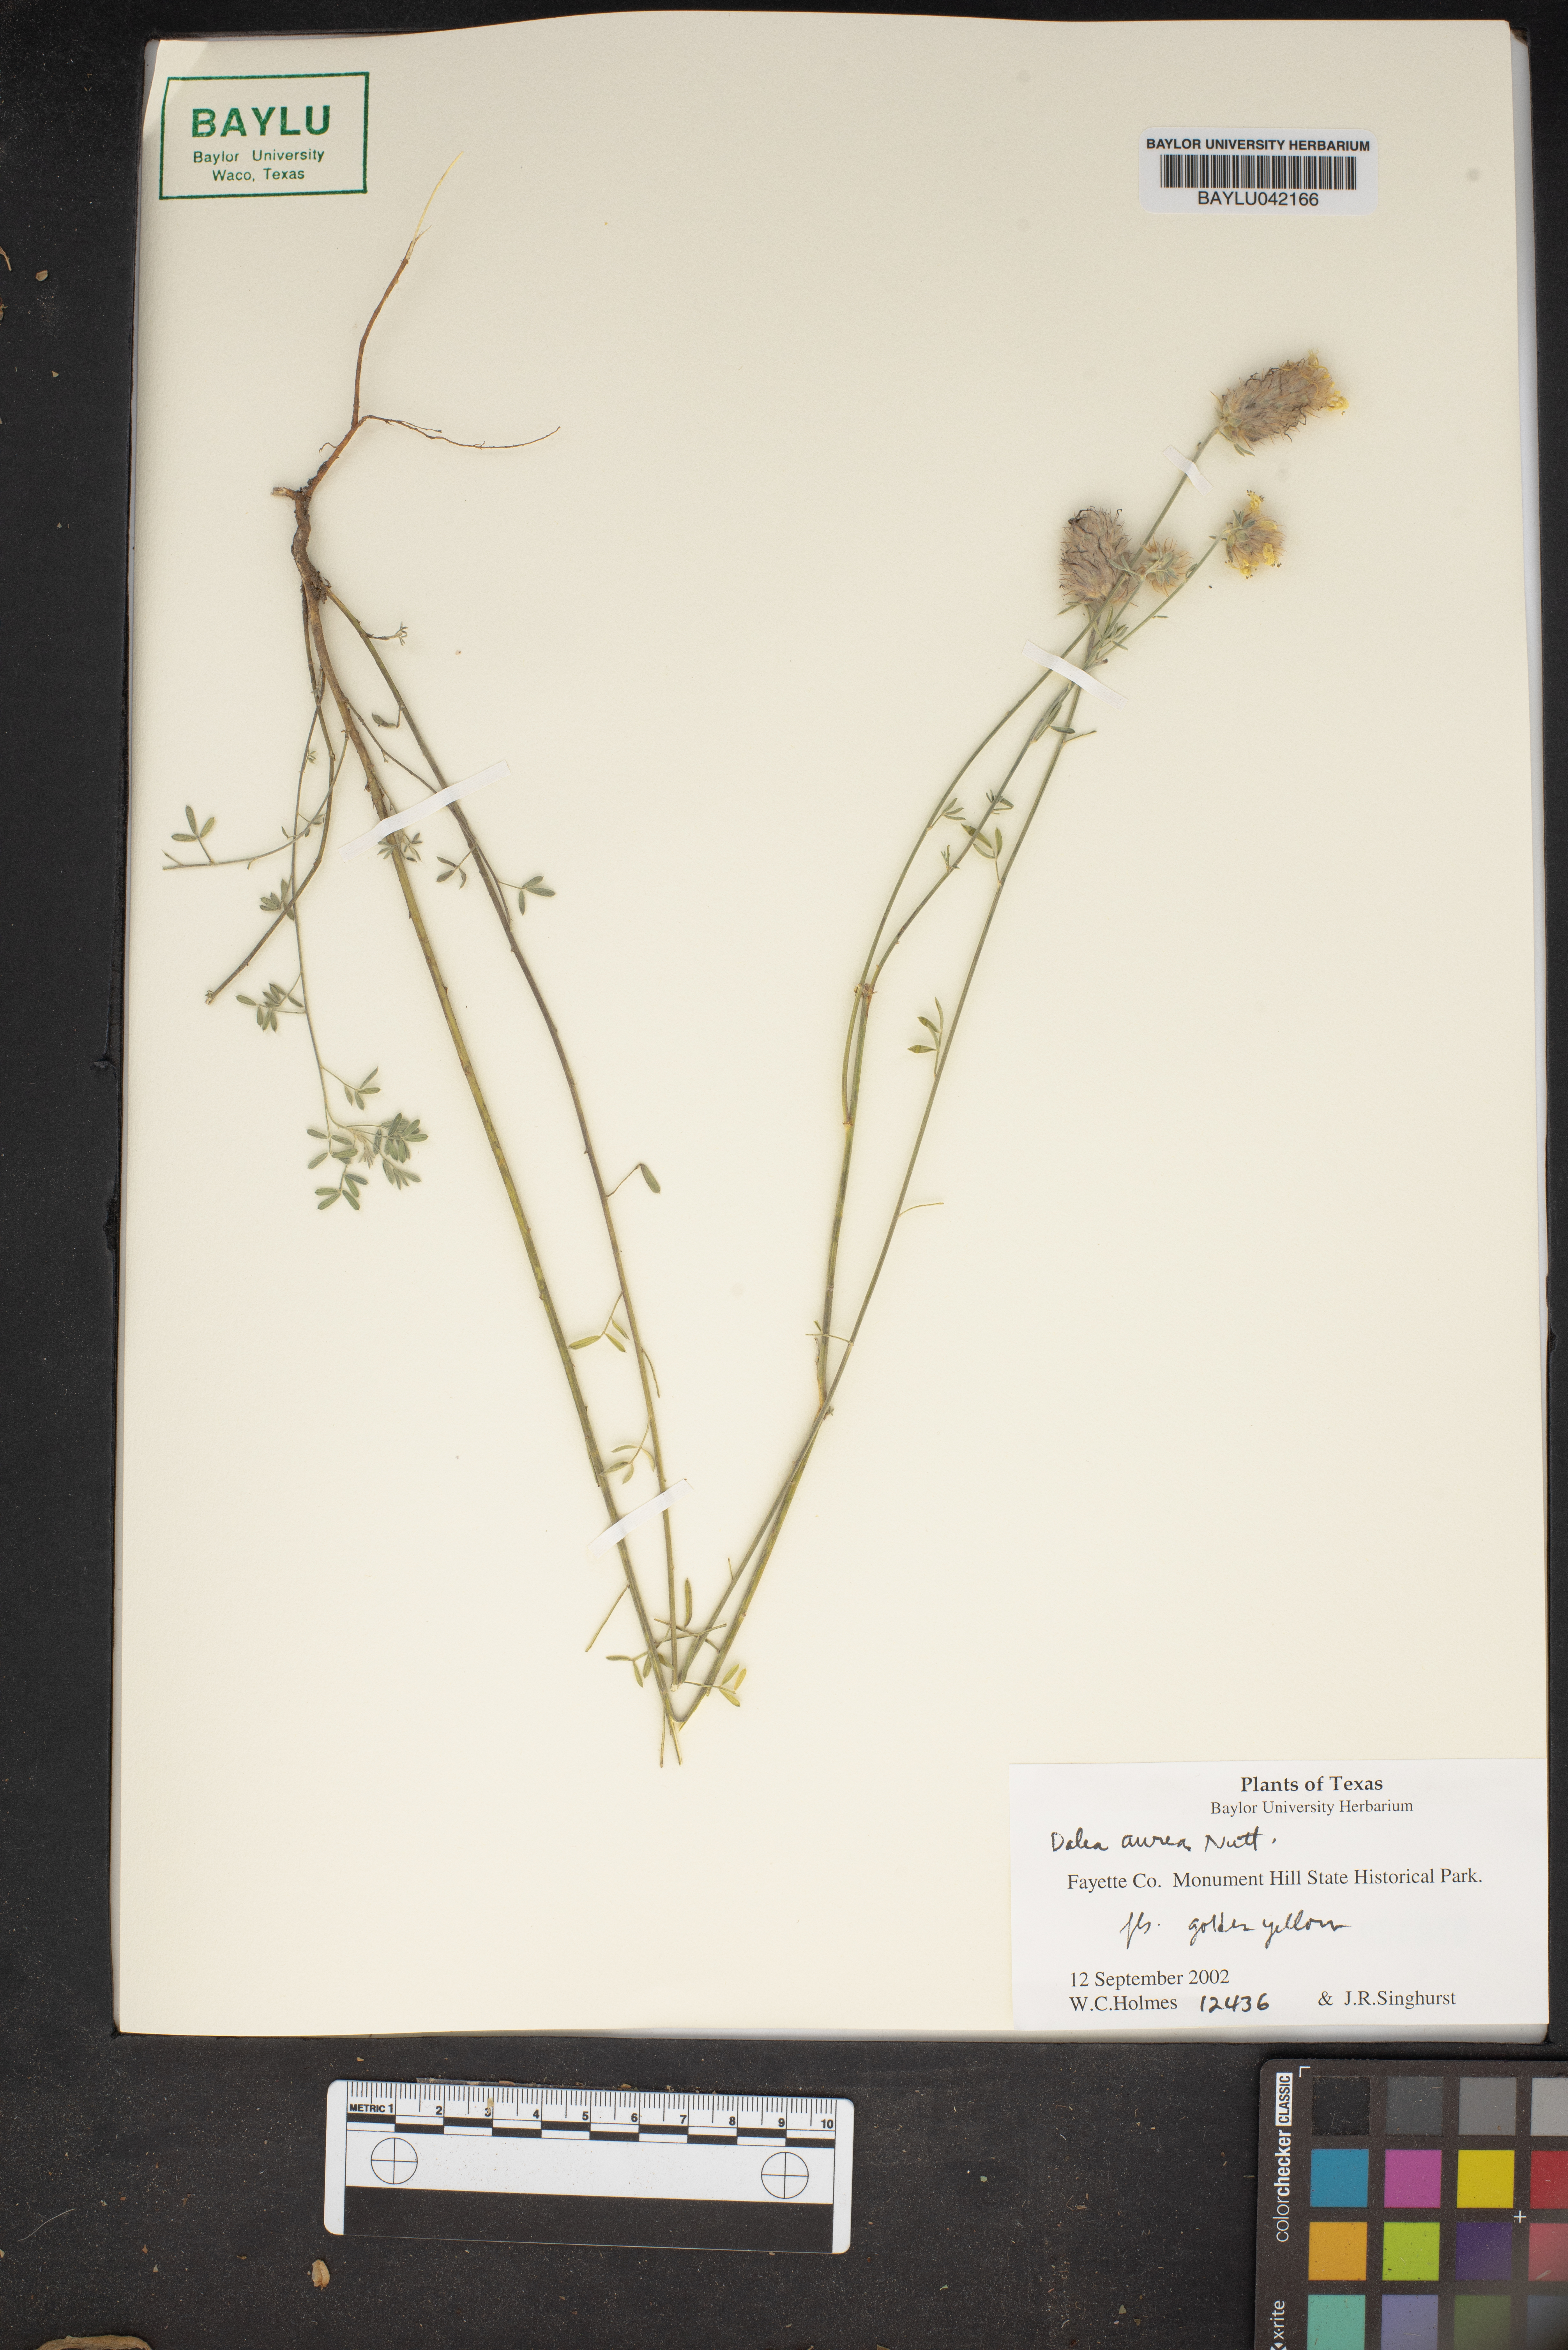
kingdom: Plantae
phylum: Tracheophyta
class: Magnoliopsida
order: Fabales
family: Fabaceae
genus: Dalea
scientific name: Dalea aurea
